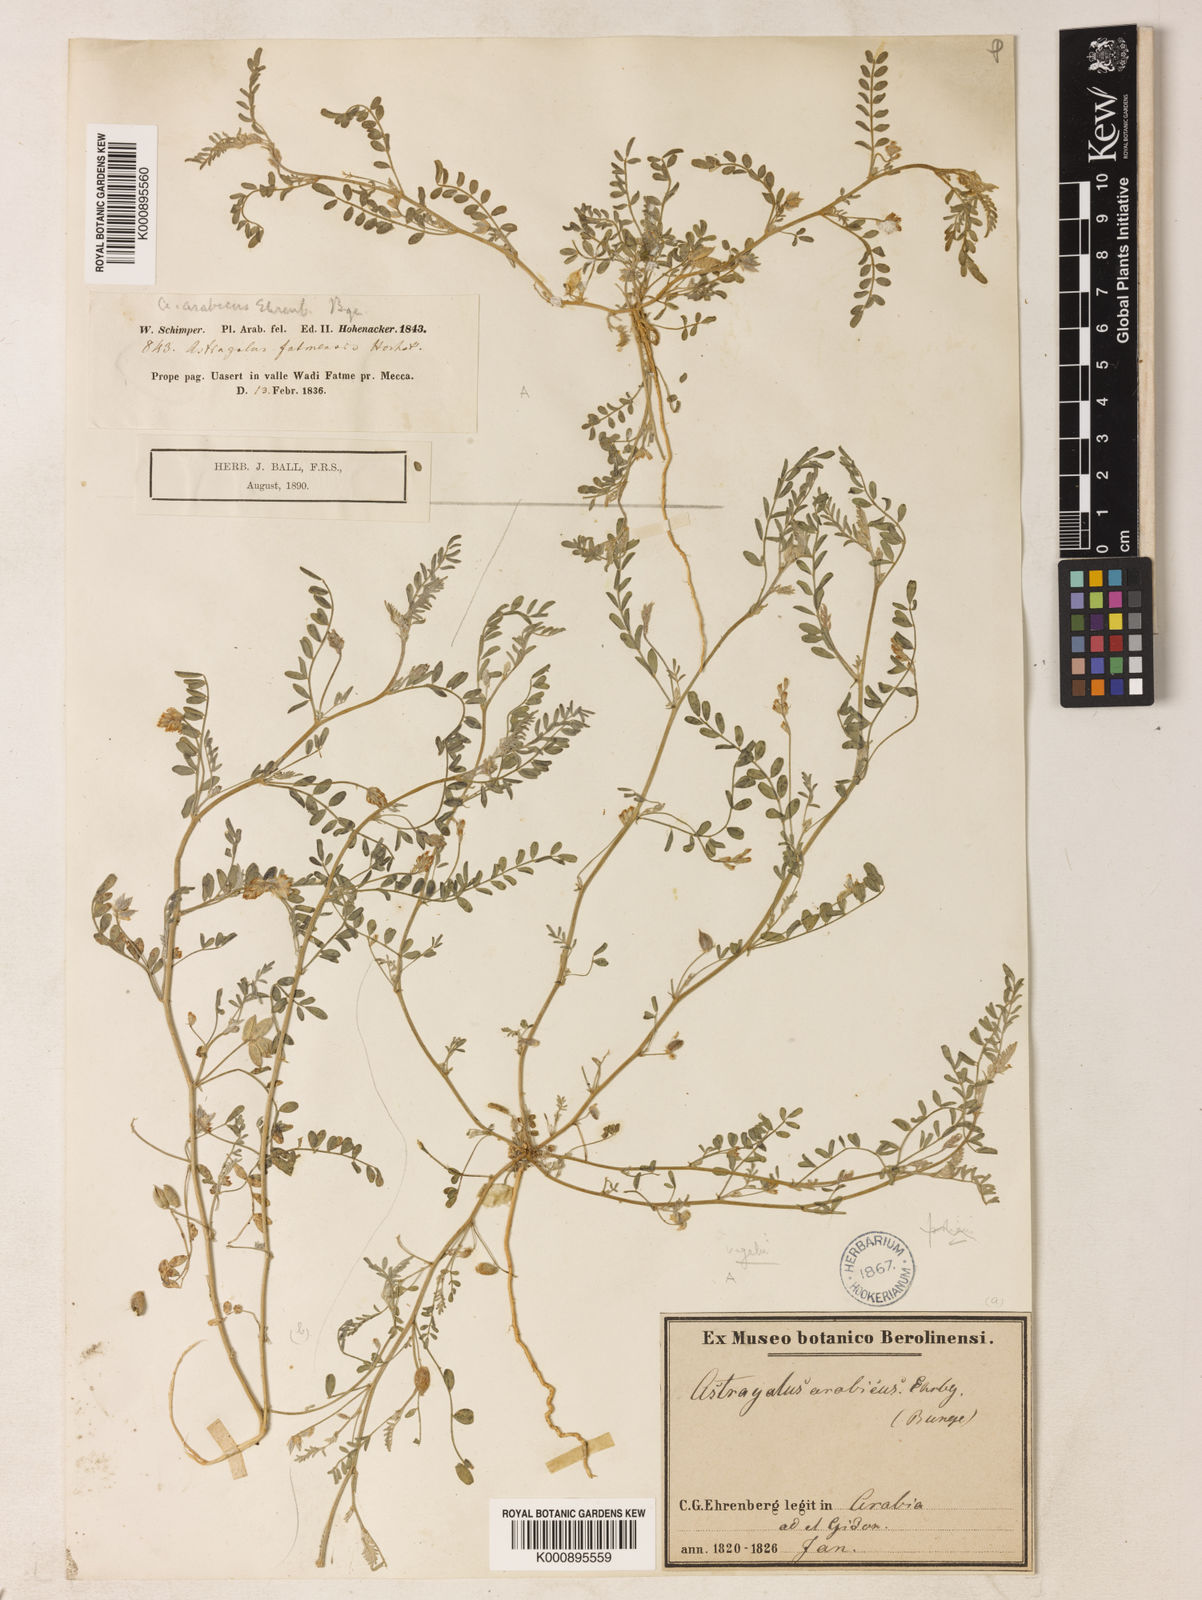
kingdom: Plantae
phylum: Tracheophyta
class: Magnoliopsida
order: Fabales
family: Fabaceae
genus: Astragalus
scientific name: Astragalus vogelii
